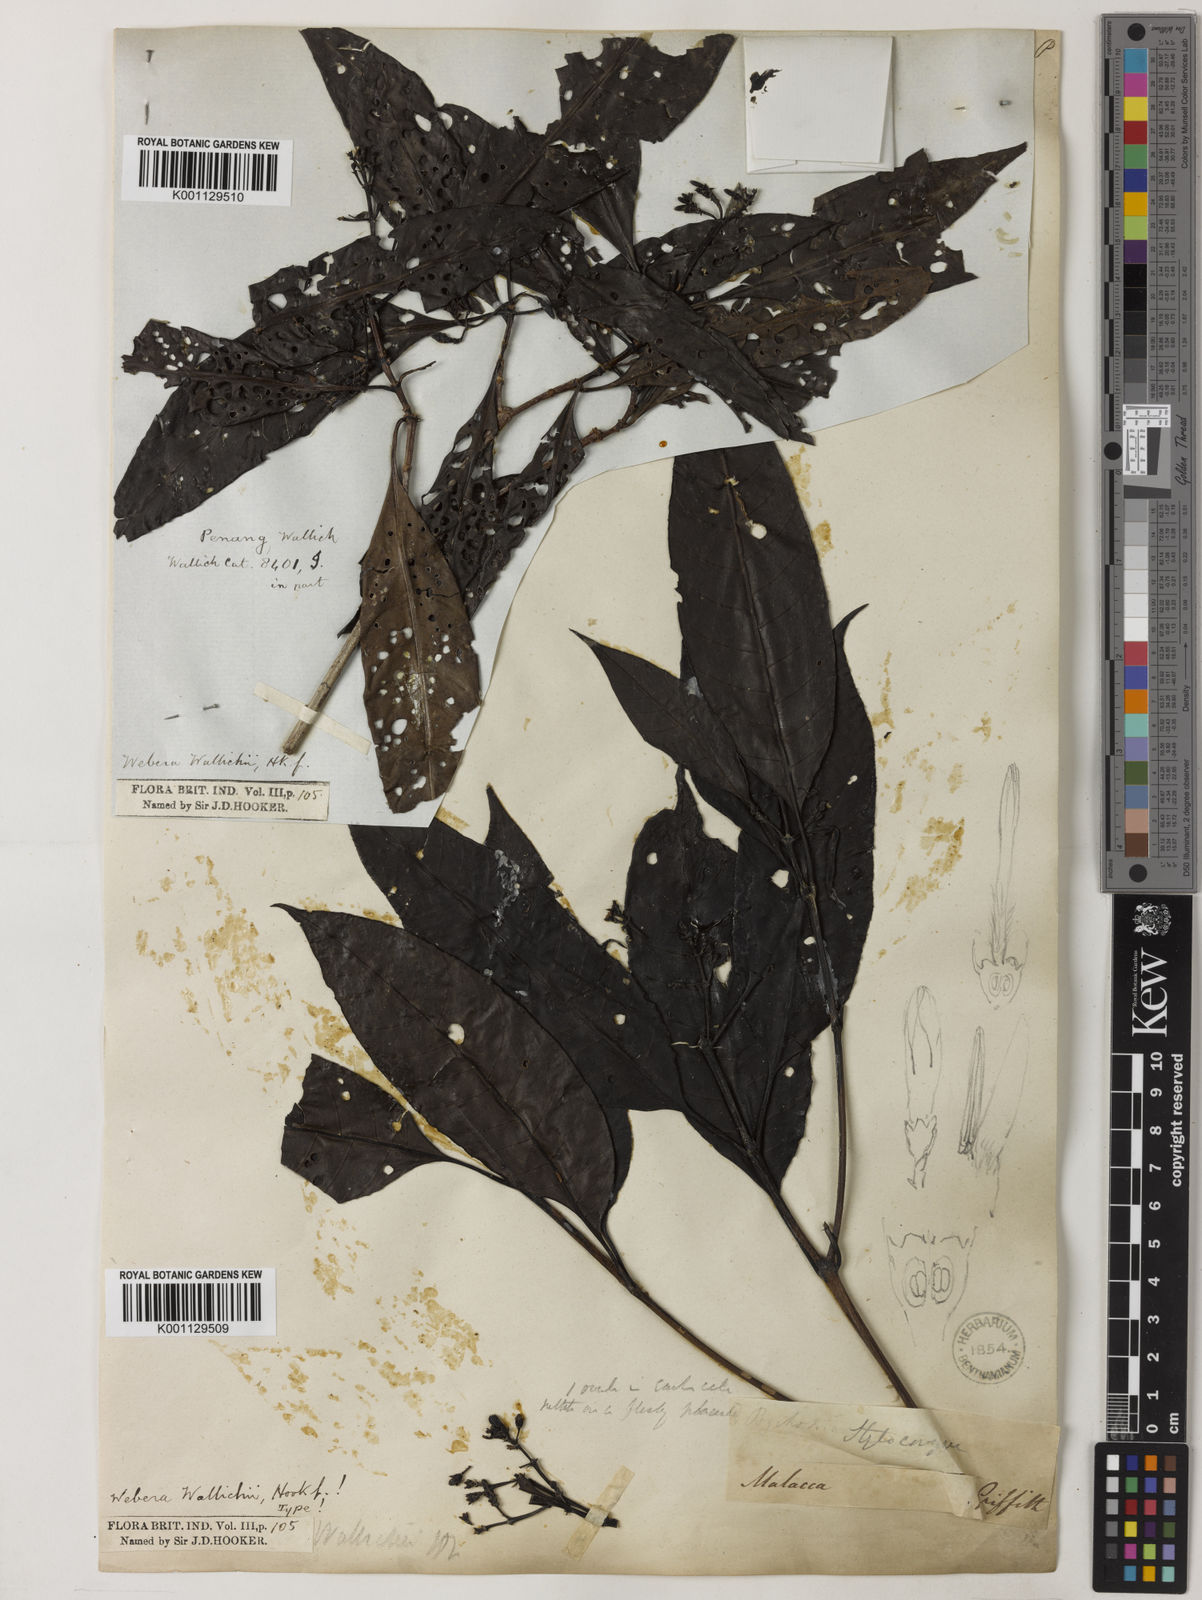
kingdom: Plantae
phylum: Tracheophyta
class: Magnoliopsida
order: Gentianales
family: Rubiaceae
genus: Tarenna
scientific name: Tarenna wallichii
